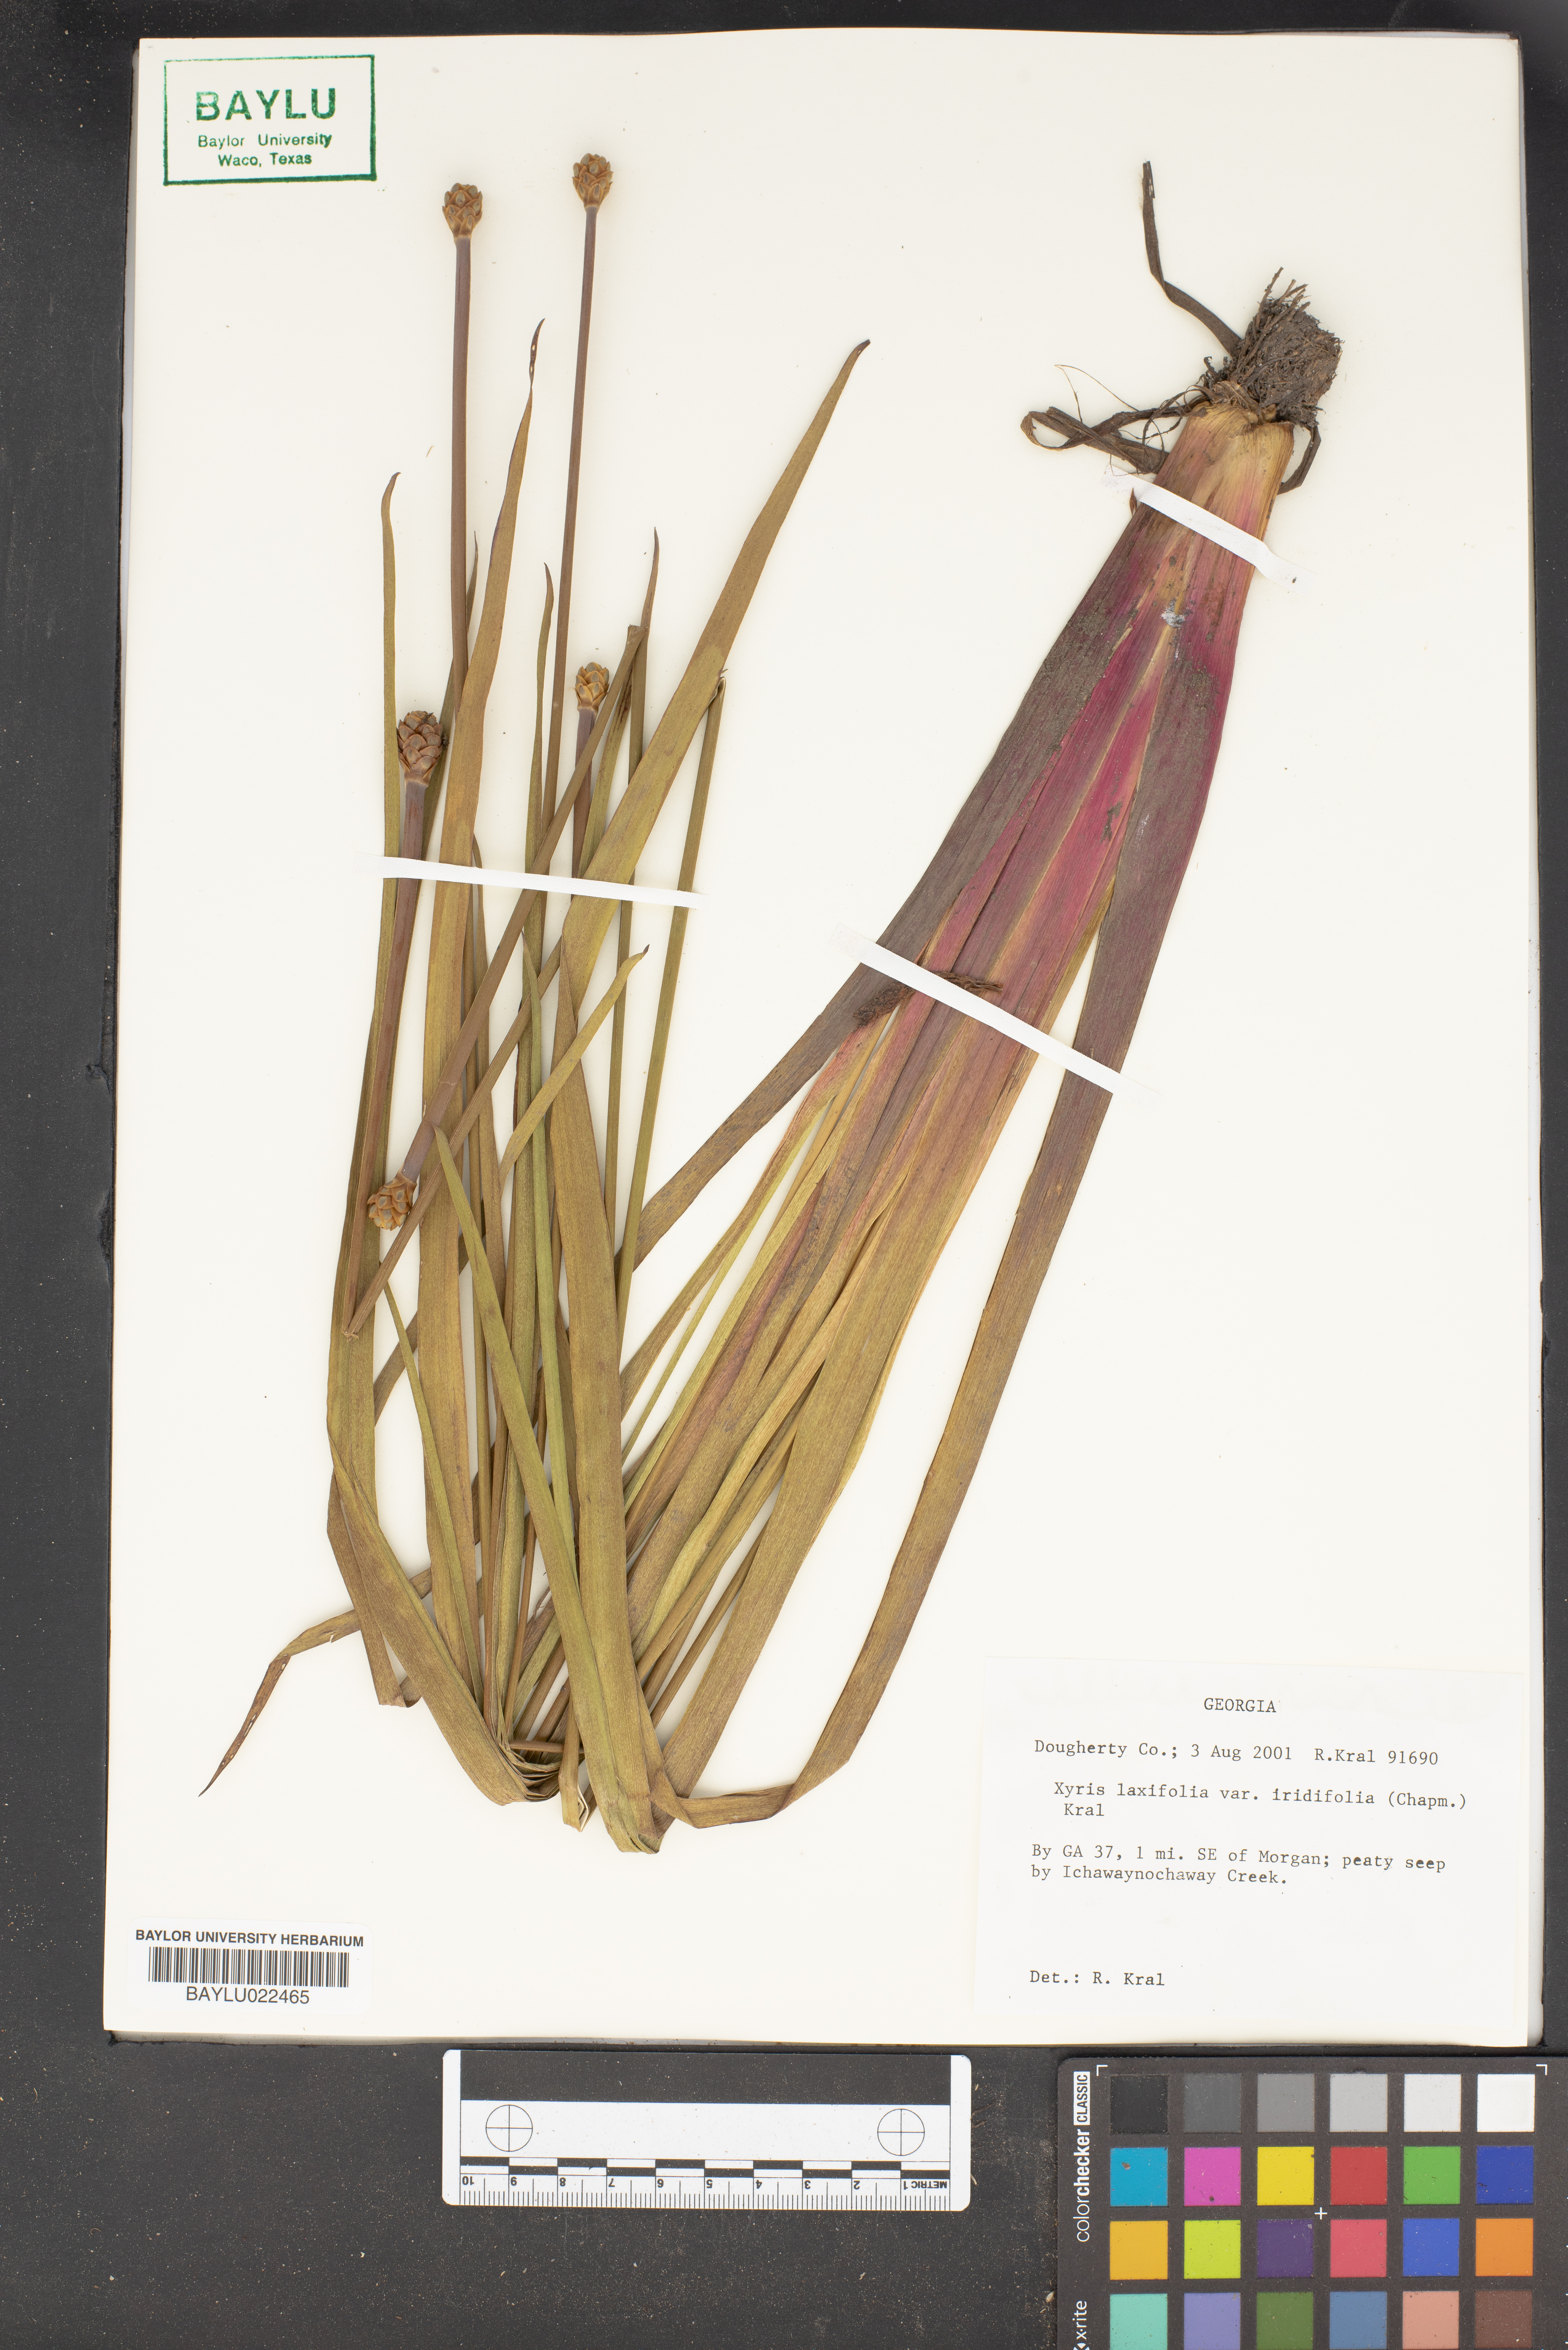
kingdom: Plantae
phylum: Tracheophyta
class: Liliopsida
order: Poales
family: Xyridaceae
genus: Xyris
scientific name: Xyris laxifolia
